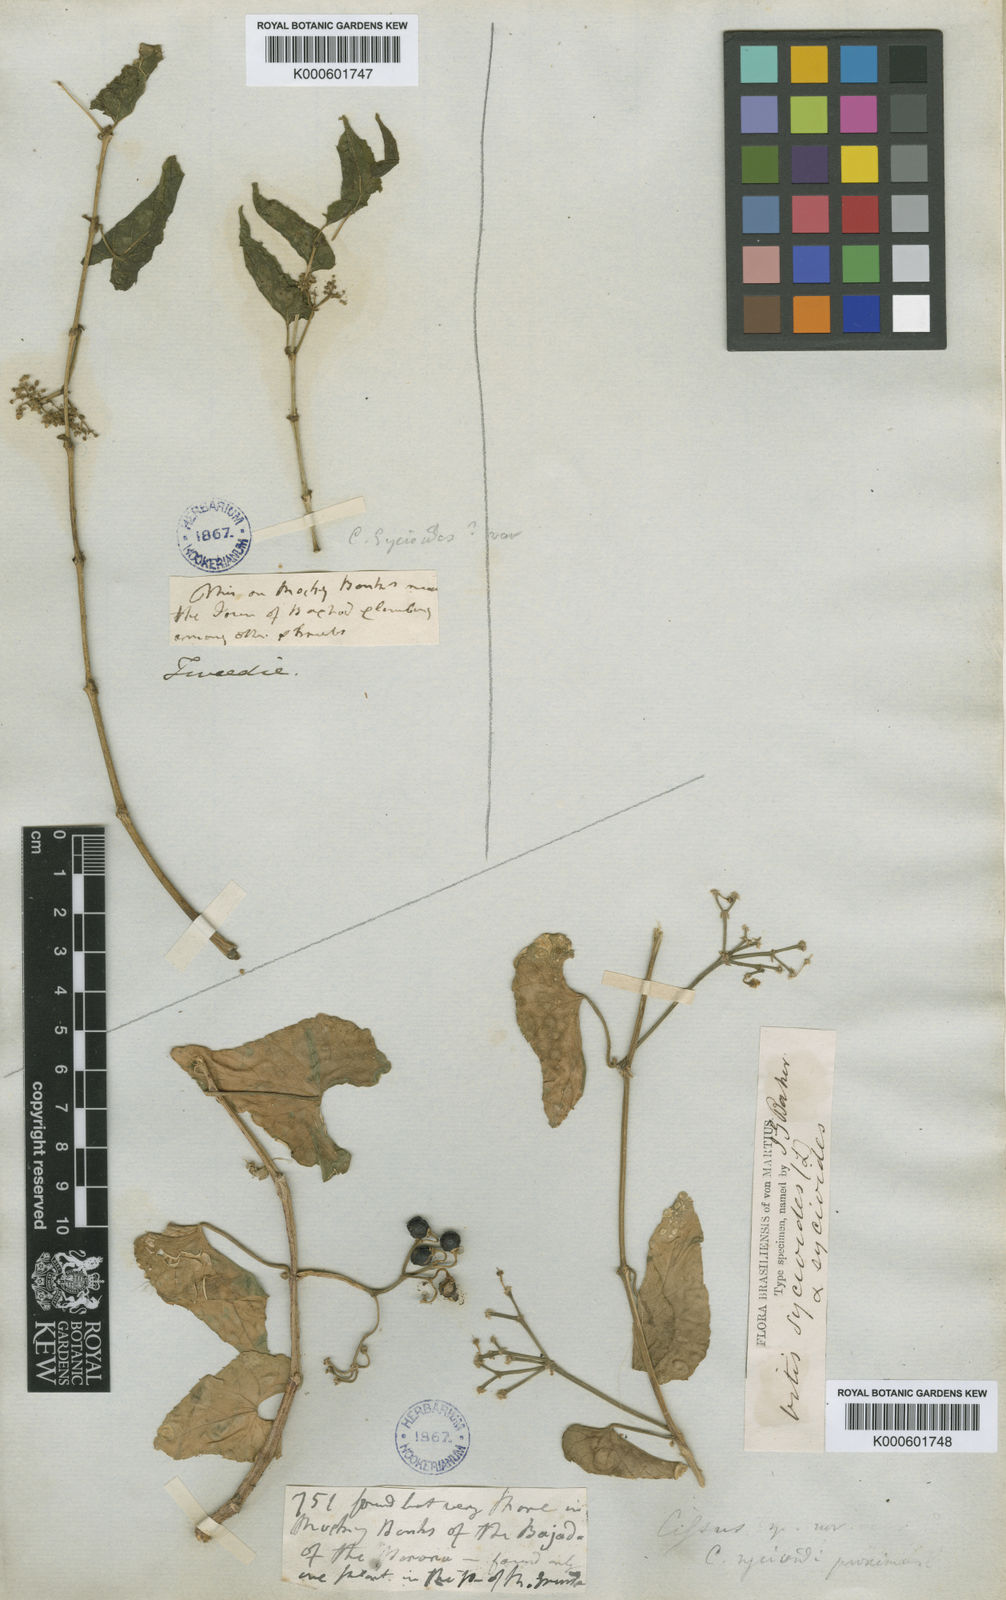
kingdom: Plantae
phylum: Tracheophyta
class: Magnoliopsida
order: Vitales
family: Vitaceae
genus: Cissus
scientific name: Cissus verticillata
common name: Princess vine
